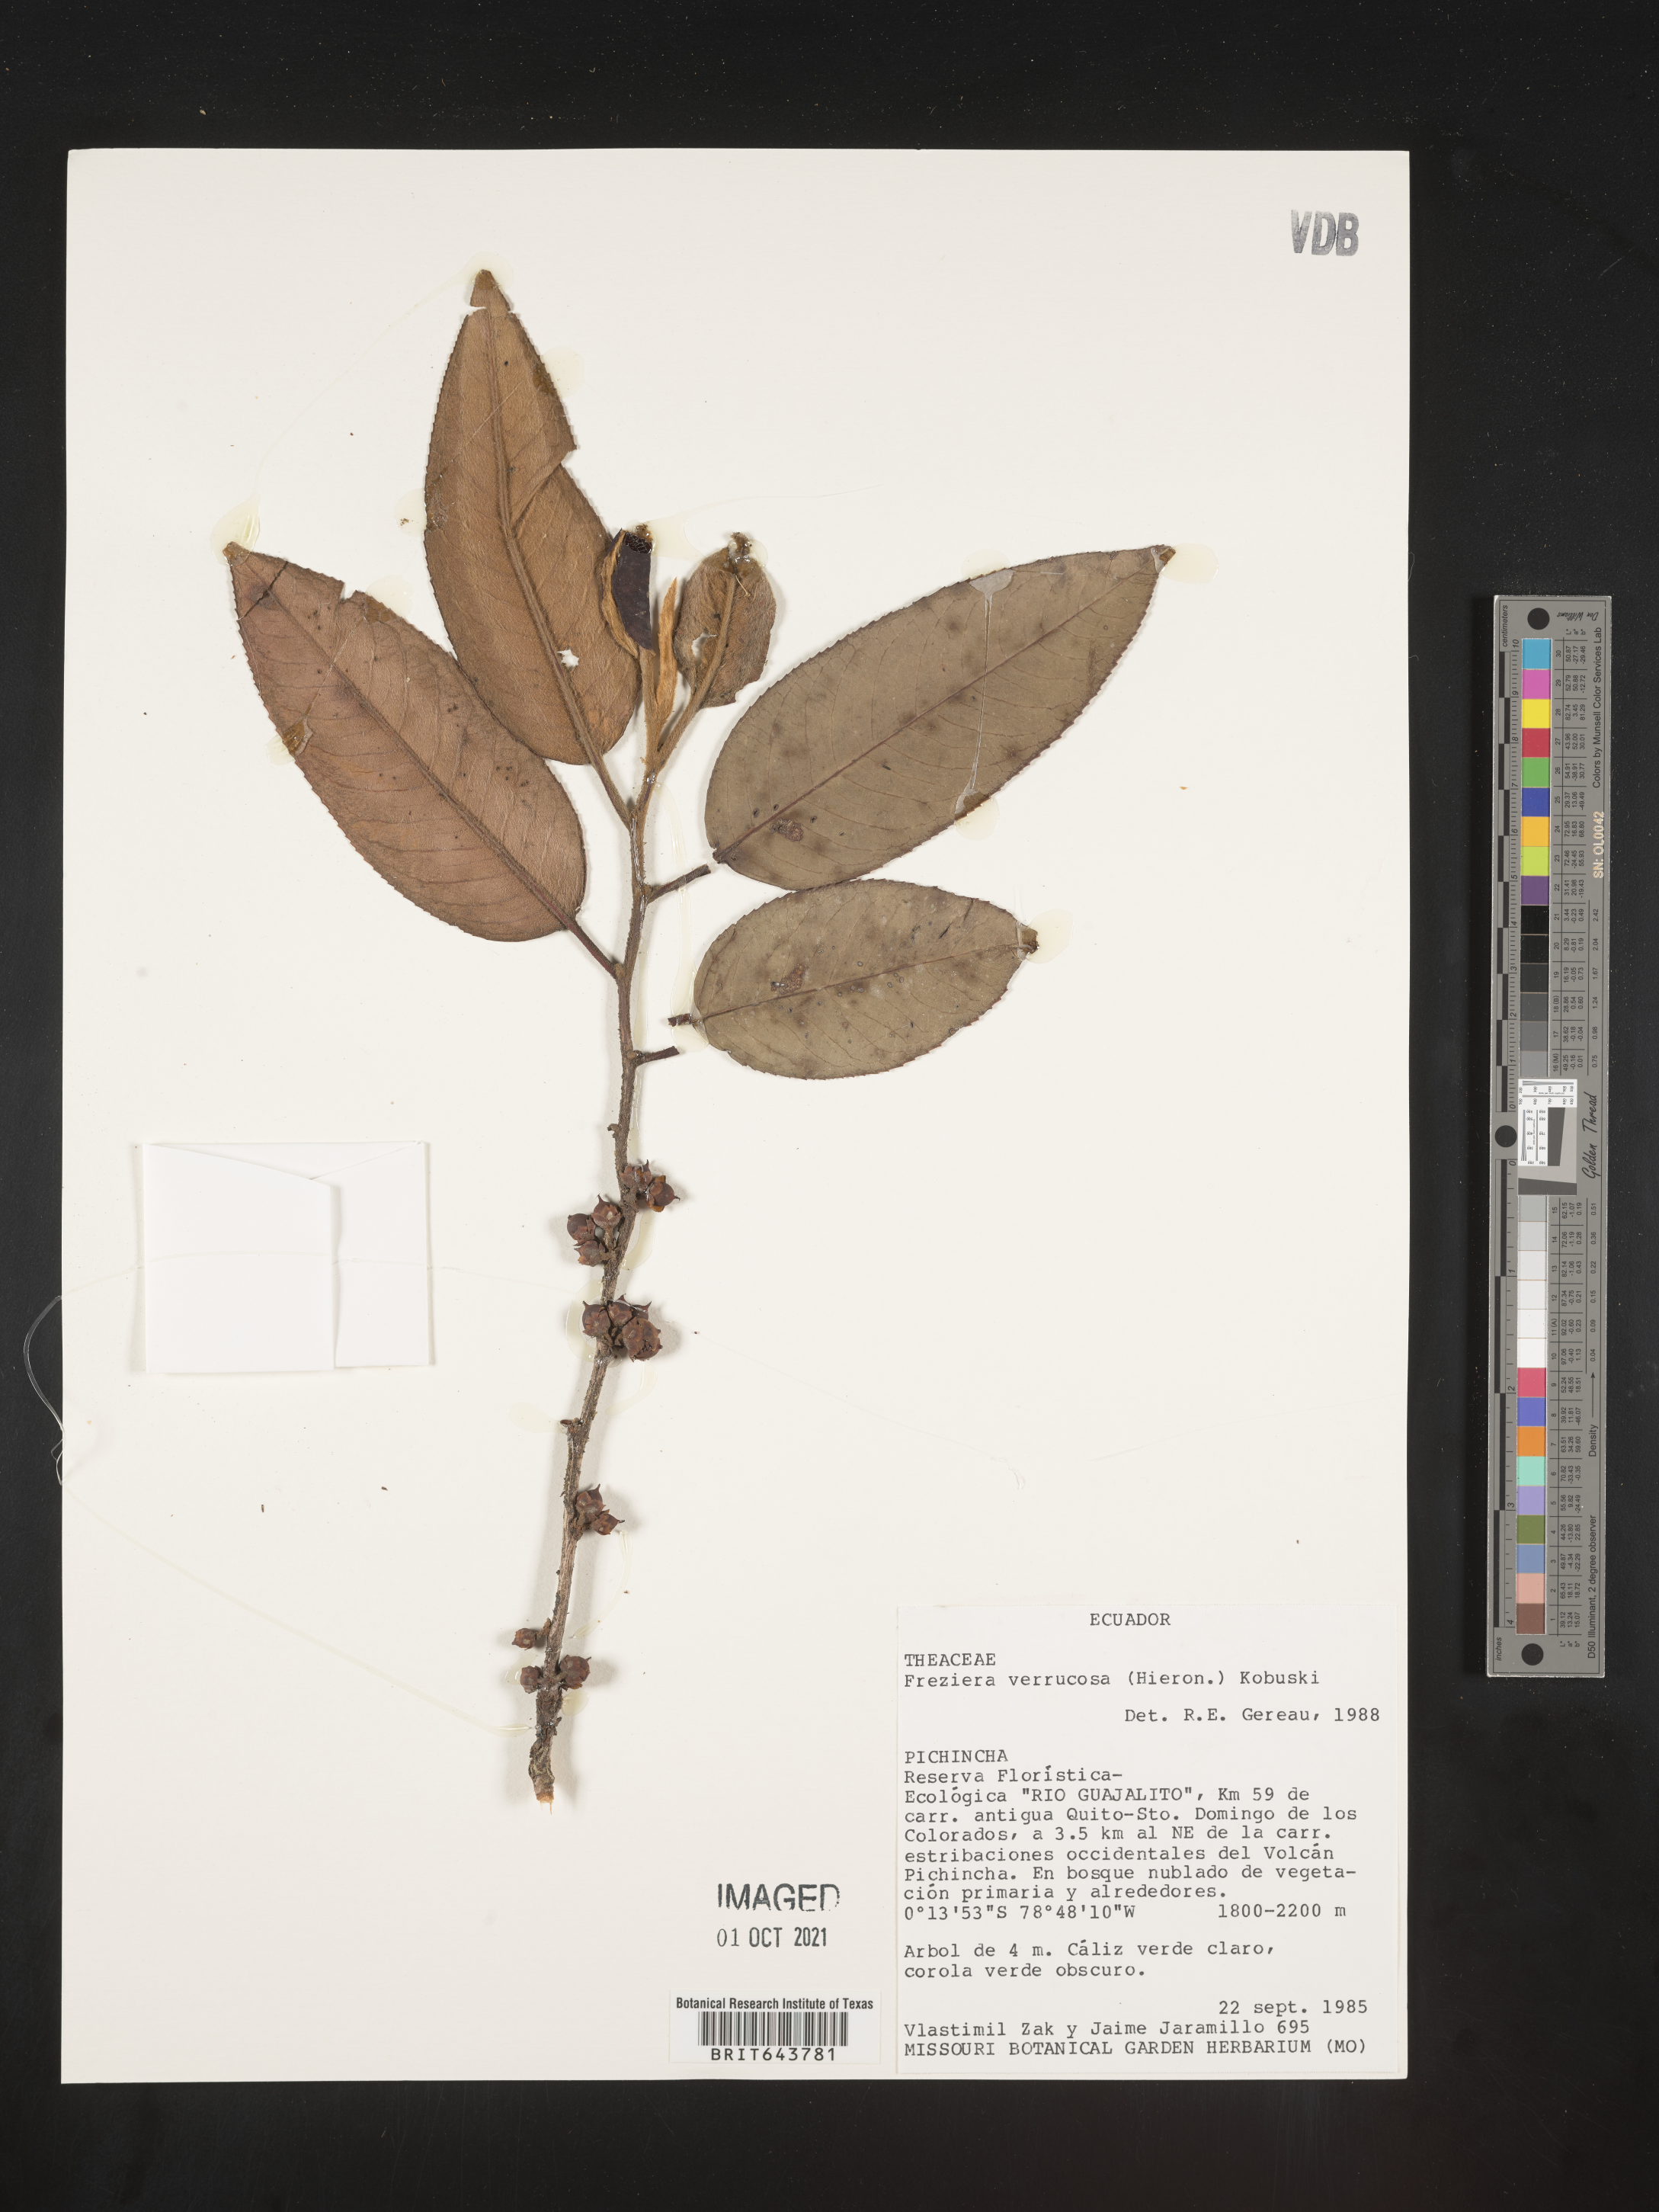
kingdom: Plantae
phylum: Tracheophyta
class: Magnoliopsida
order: Ericales
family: Pentaphylacaceae
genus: Freziera
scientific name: Freziera
